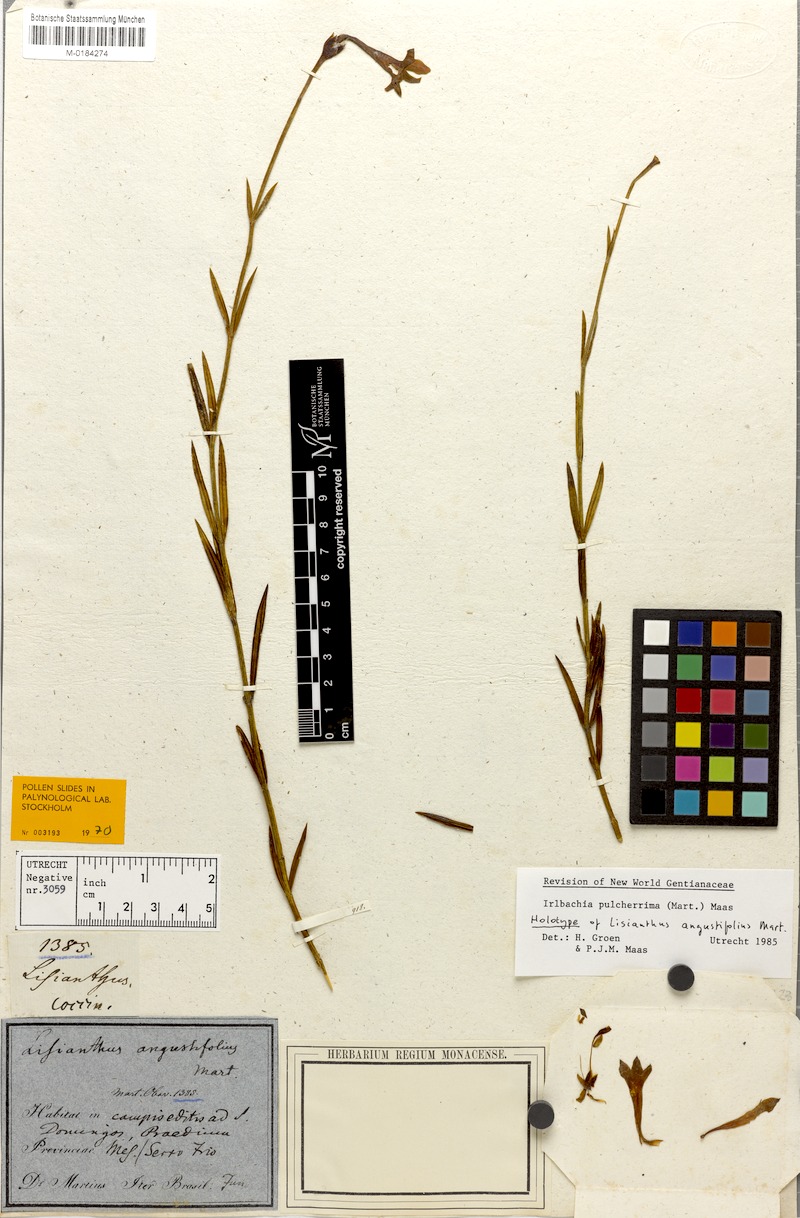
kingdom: Plantae
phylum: Tracheophyta
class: Magnoliopsida
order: Gentianales
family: Gentianaceae
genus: Calolisianthus
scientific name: Calolisianthus pulcherrimus
